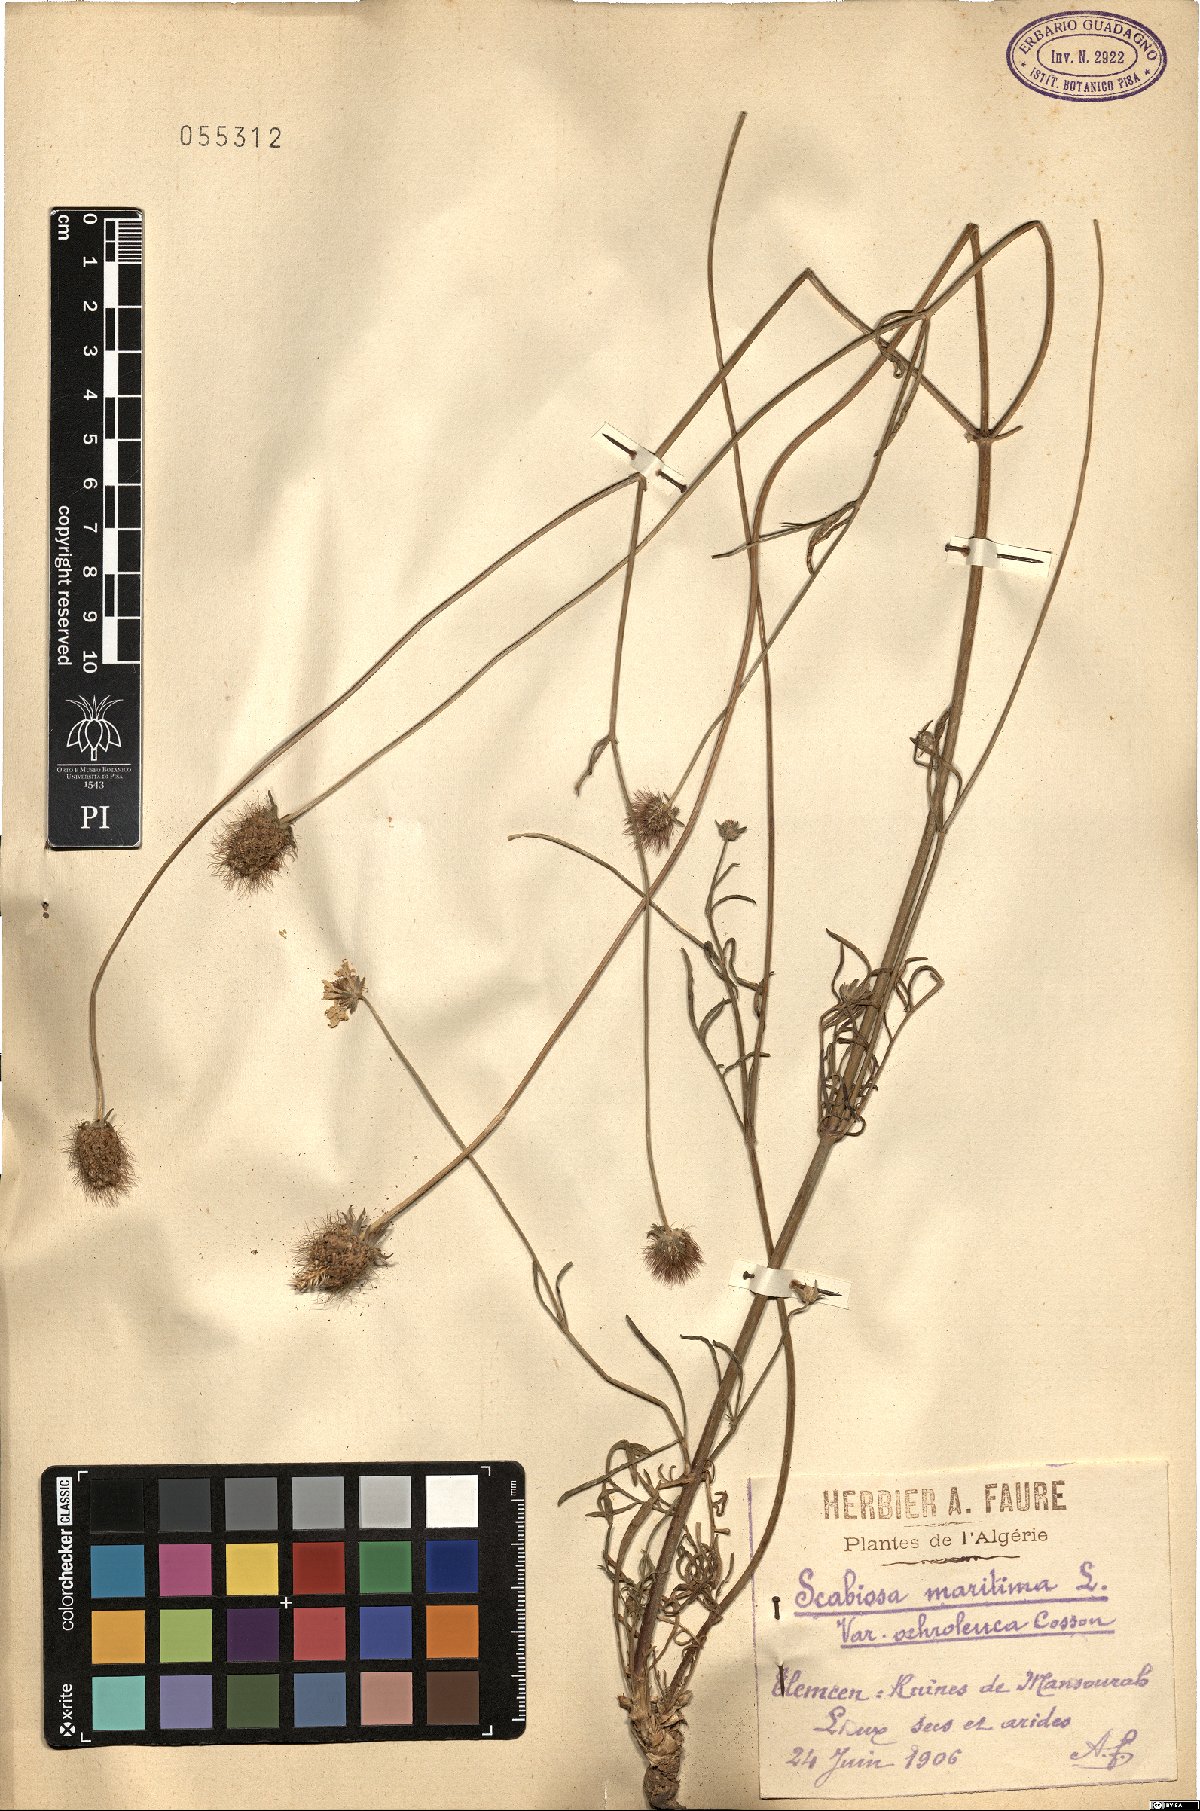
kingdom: Plantae
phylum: Tracheophyta
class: Magnoliopsida
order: Dipsacales
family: Caprifoliaceae
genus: Scabiosa
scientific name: Scabiosa maritima
